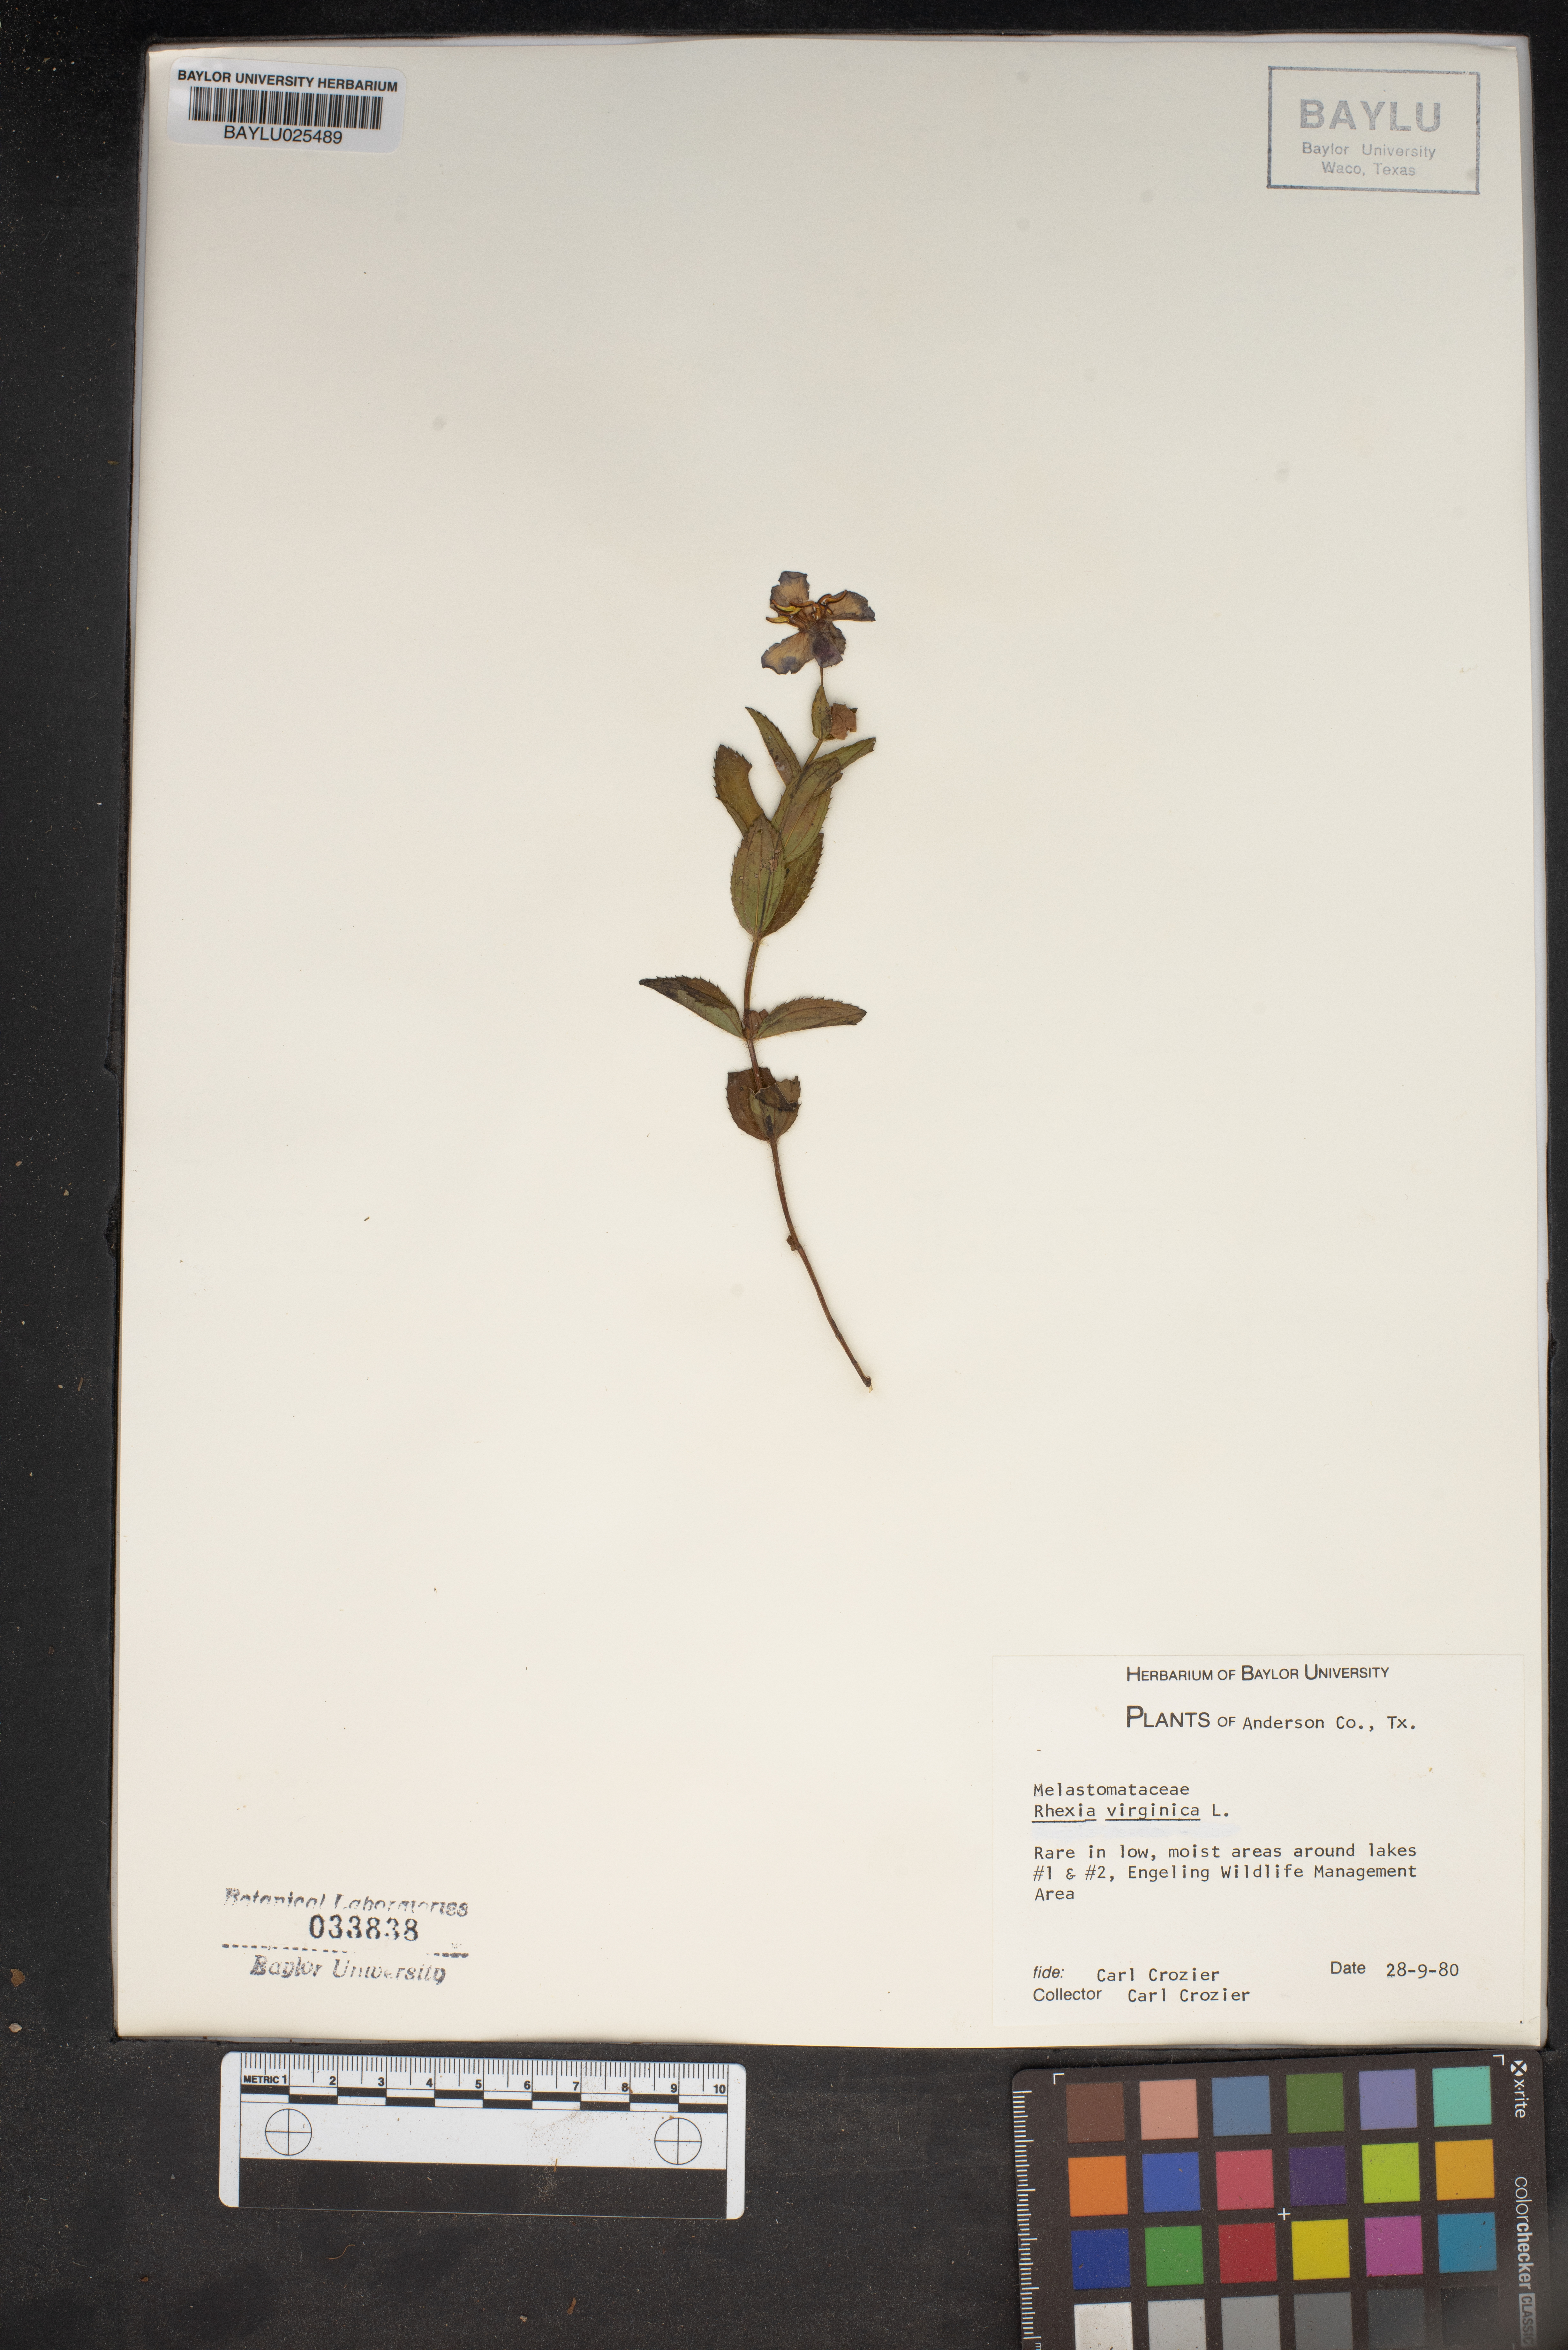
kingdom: Plantae
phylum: Tracheophyta
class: Magnoliopsida
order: Myrtales
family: Melastomataceae
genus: Rhexia
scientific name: Rhexia virginica
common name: Common meadow beauty
